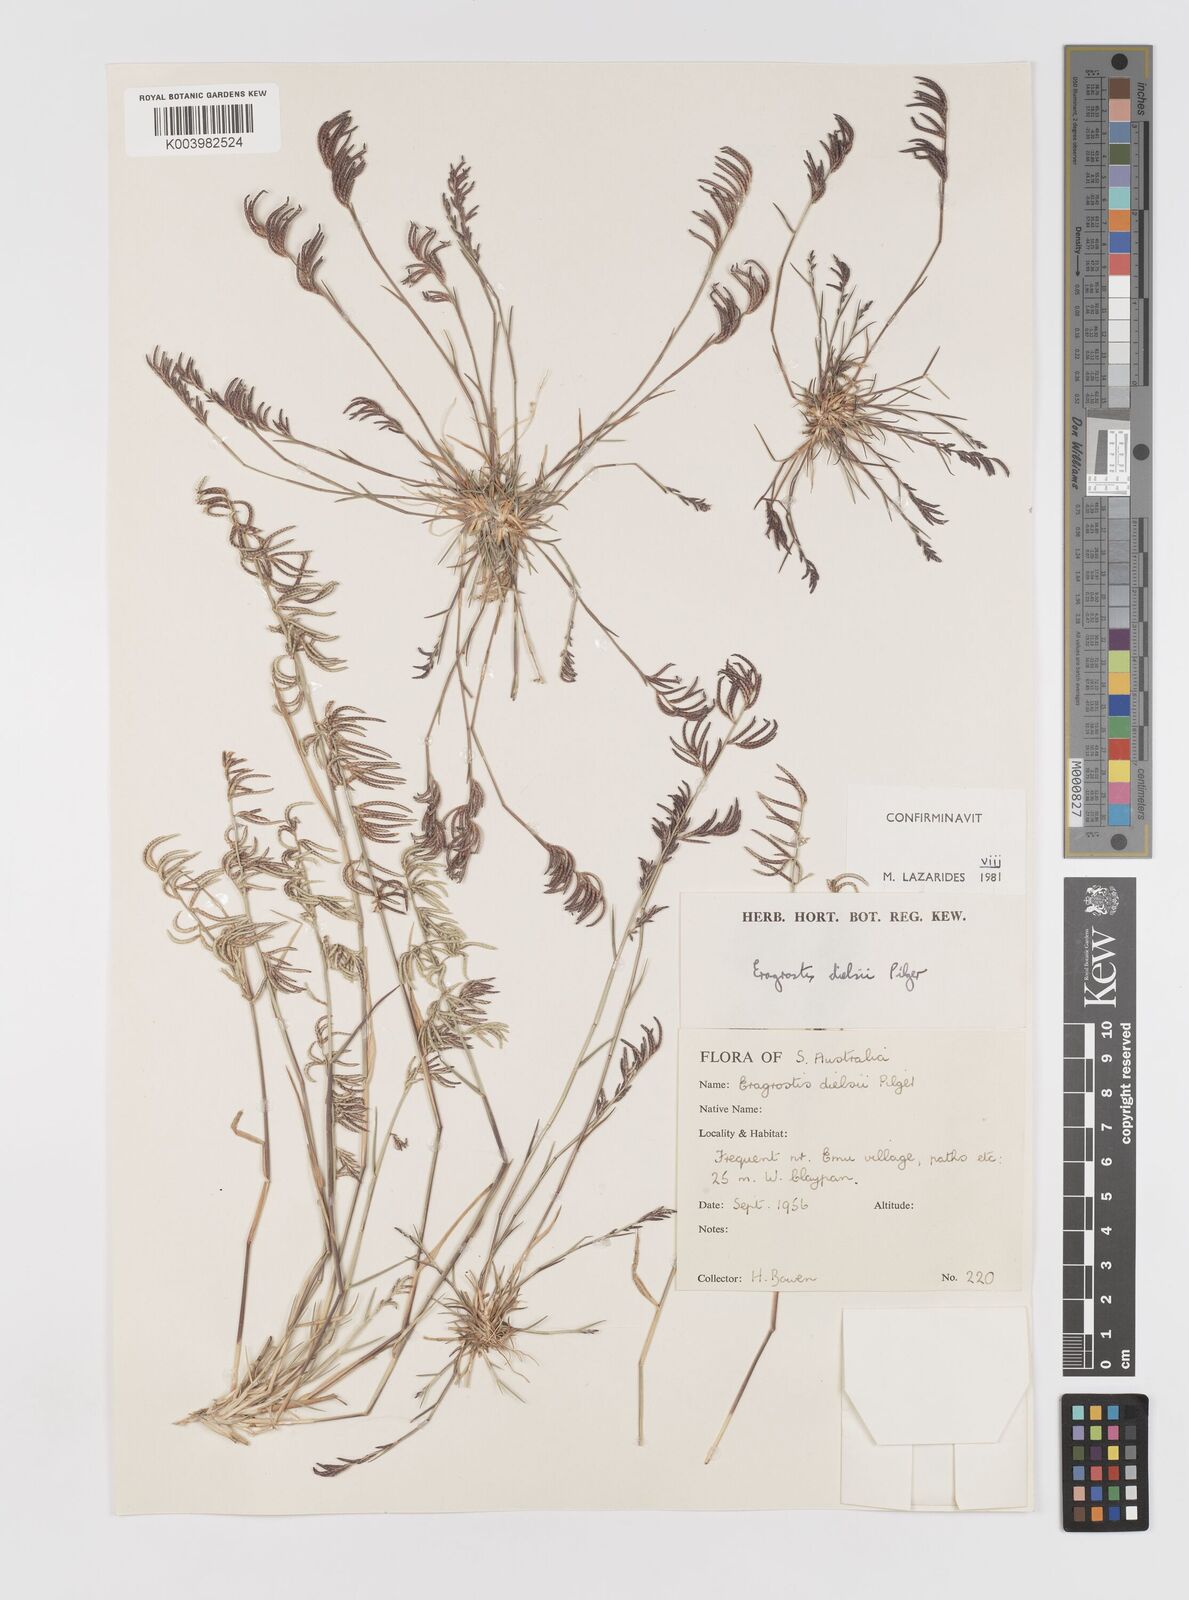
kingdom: Plantae
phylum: Tracheophyta
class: Liliopsida
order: Poales
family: Poaceae
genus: Eragrostis
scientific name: Eragrostis dielsii
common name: Lovegrass
